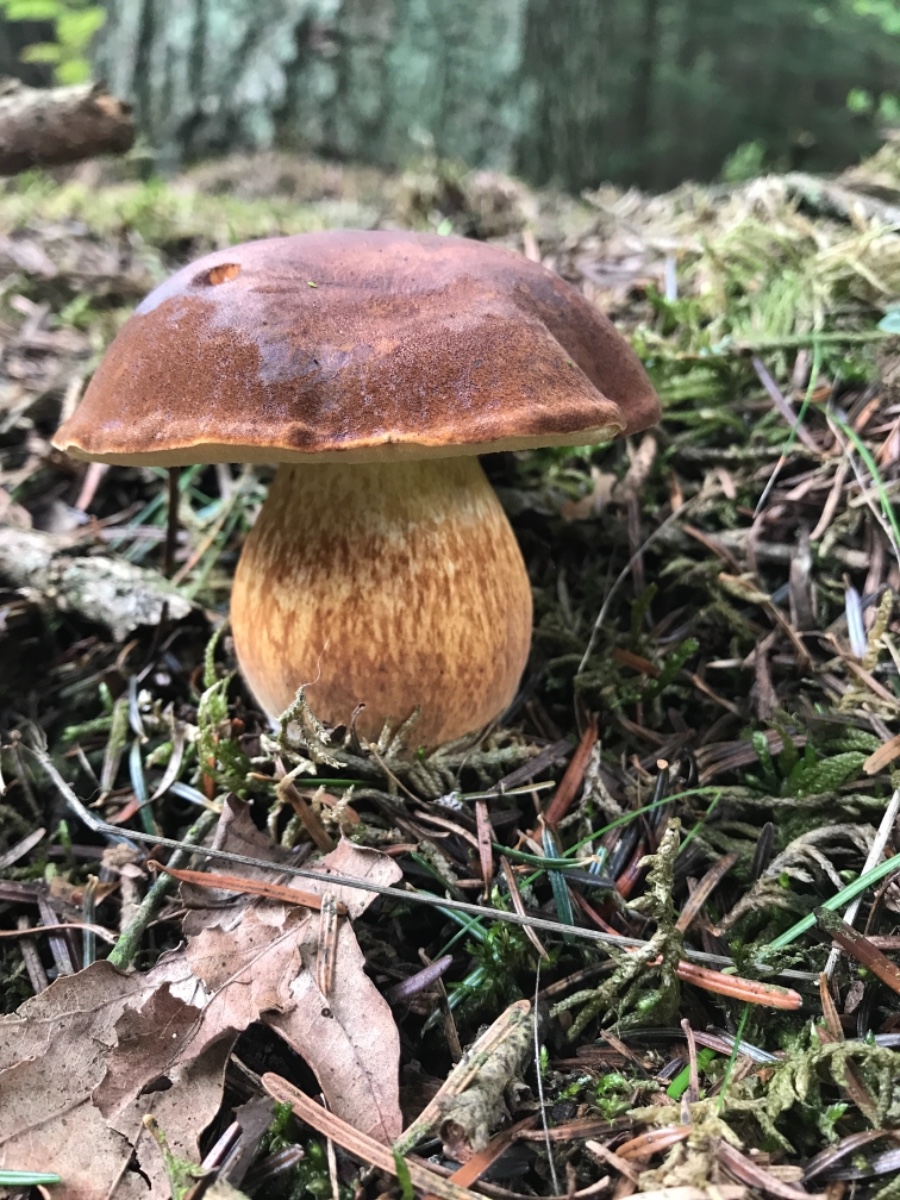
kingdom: Fungi
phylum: Basidiomycota
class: Agaricomycetes
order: Boletales
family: Boletaceae
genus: Imleria
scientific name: Imleria badia
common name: brunstokket rørhat
